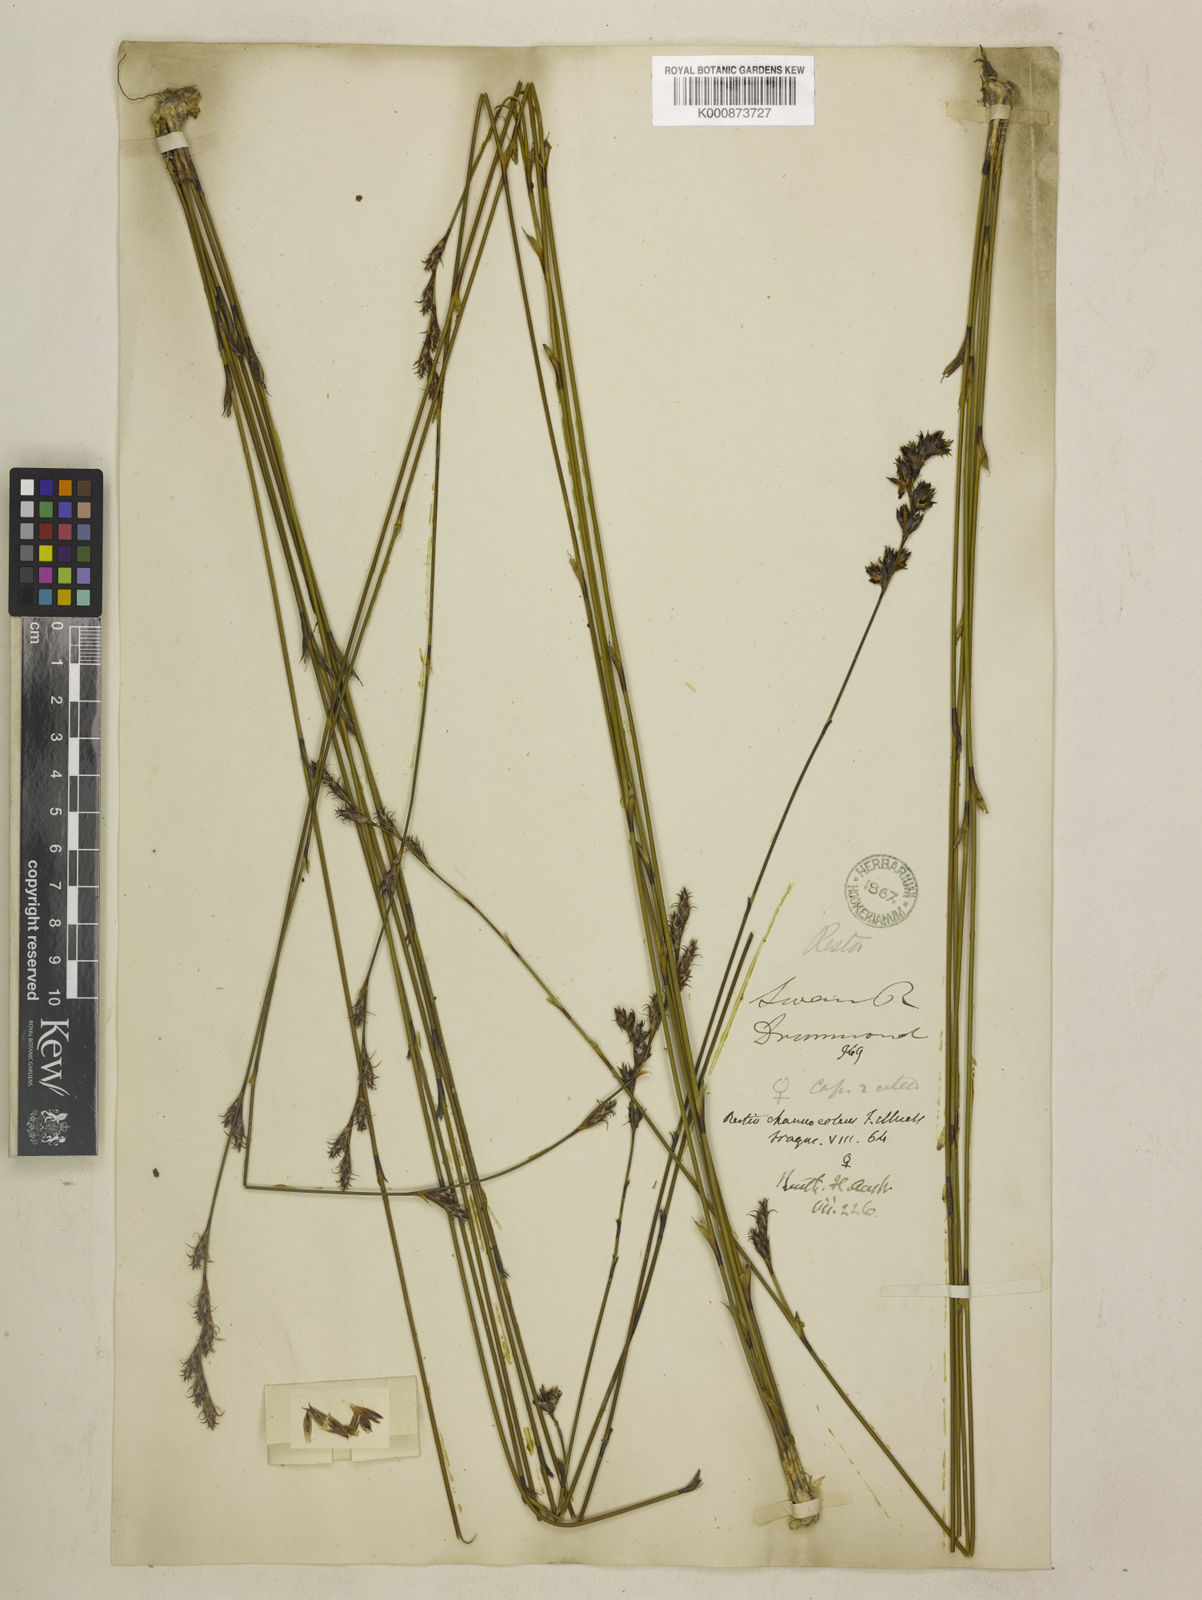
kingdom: Plantae
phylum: Tracheophyta
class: Liliopsida
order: Poales
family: Restionaceae
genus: Chordifex
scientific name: Chordifex chaunocoleus
